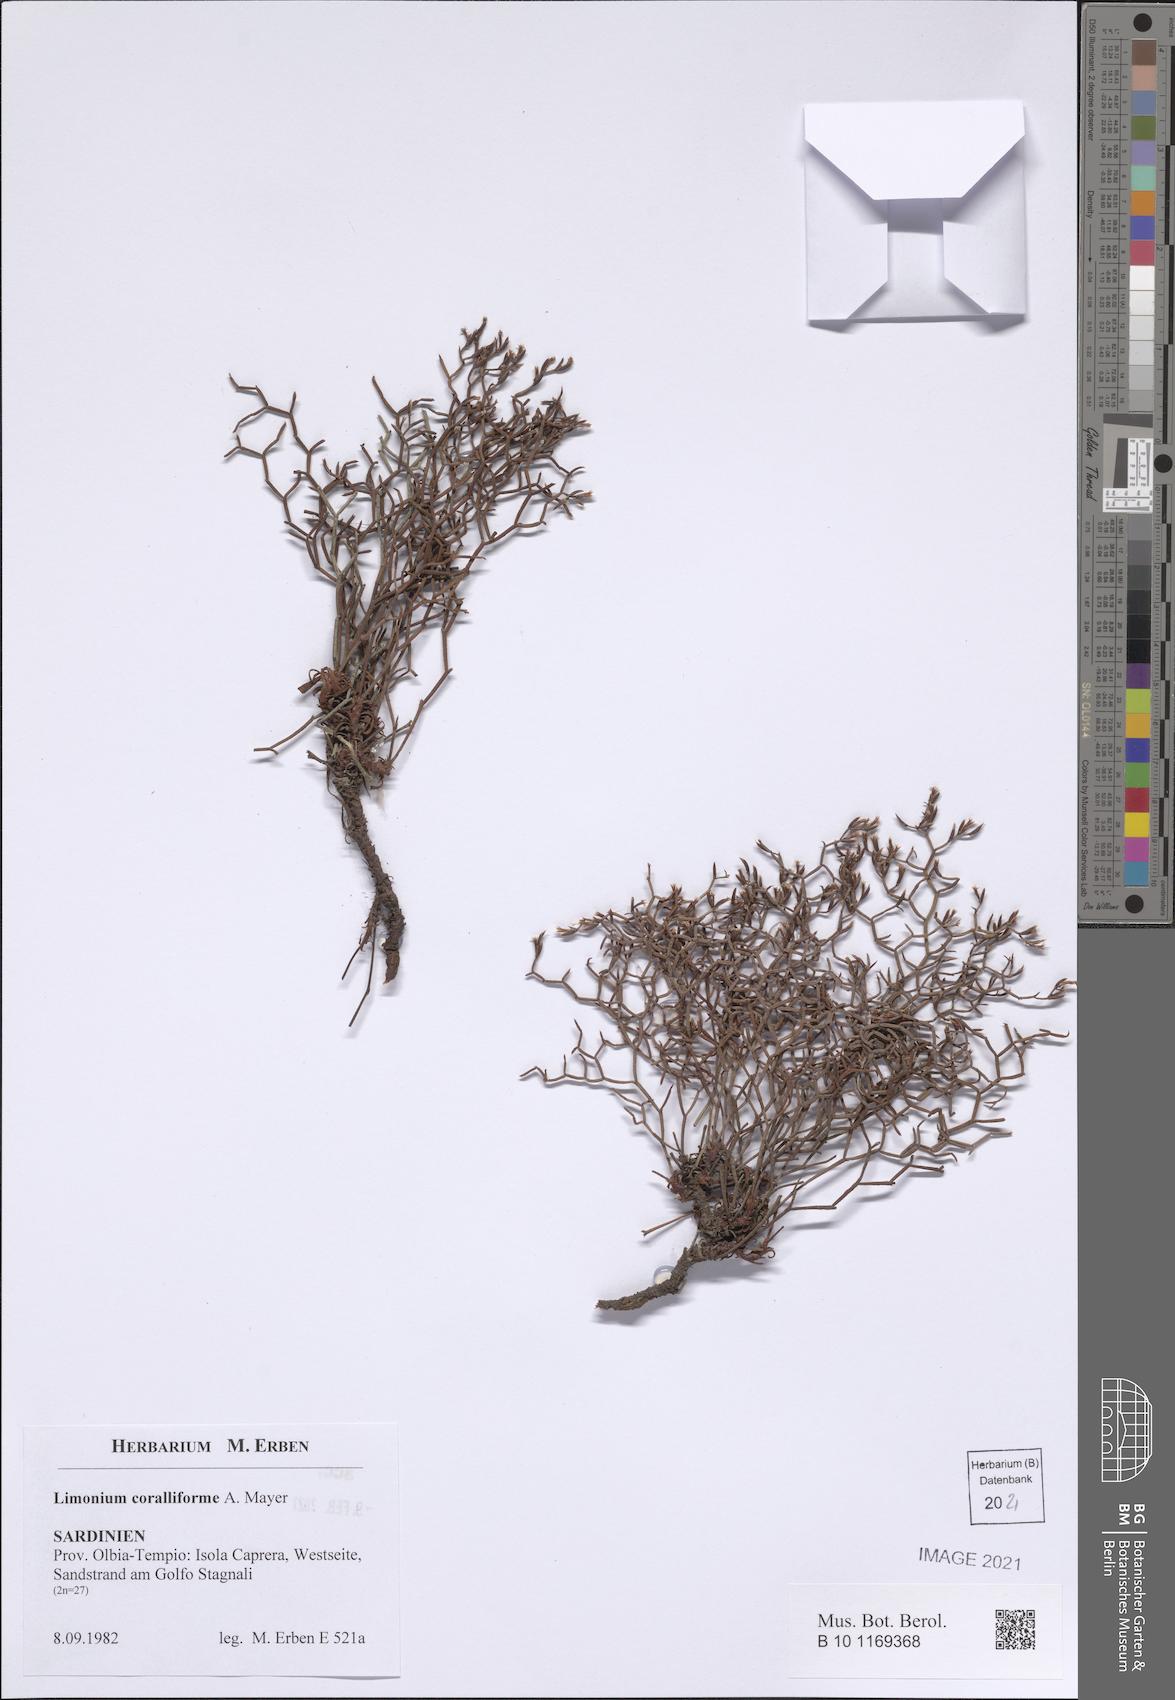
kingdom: Plantae
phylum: Tracheophyta
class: Magnoliopsida
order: Caryophyllales
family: Plumbaginaceae
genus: Limonium
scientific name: Limonium coralliforme
